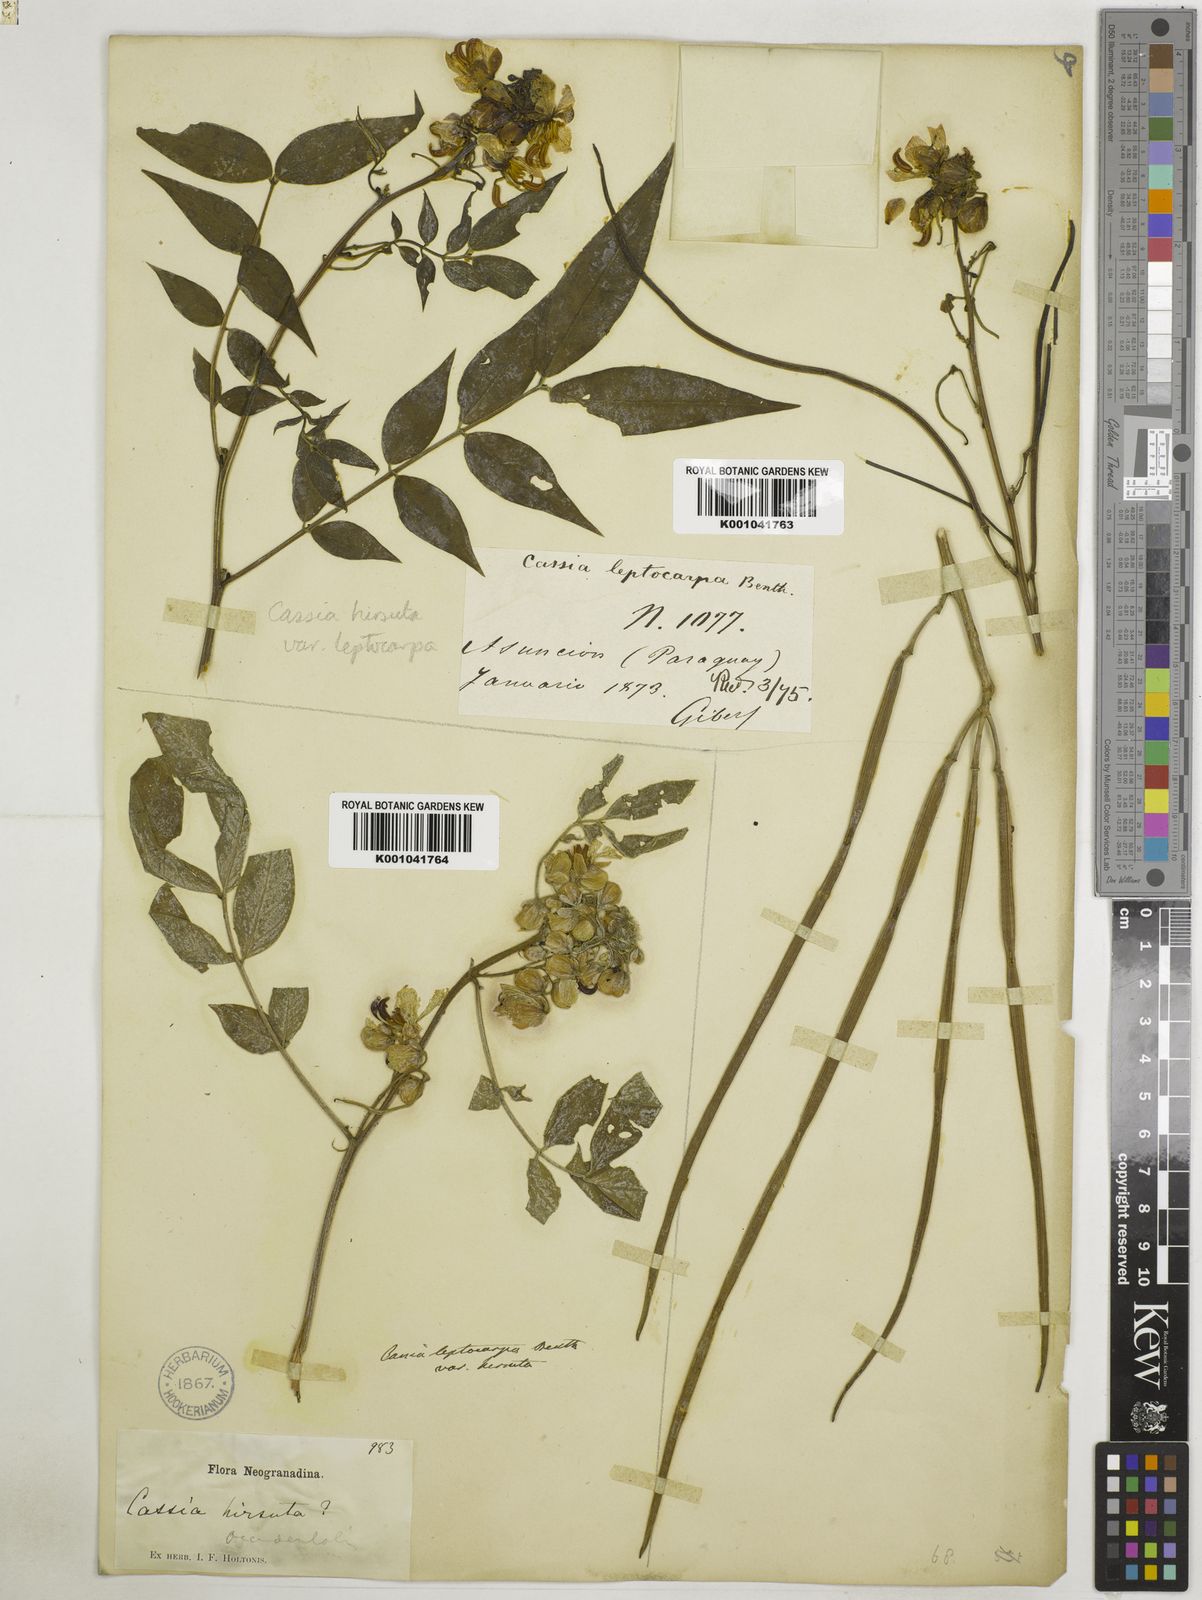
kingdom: Plantae
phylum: Tracheophyta
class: Magnoliopsida
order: Fabales
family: Fabaceae
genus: Senna
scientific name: Senna hirsuta
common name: Woolly senna
